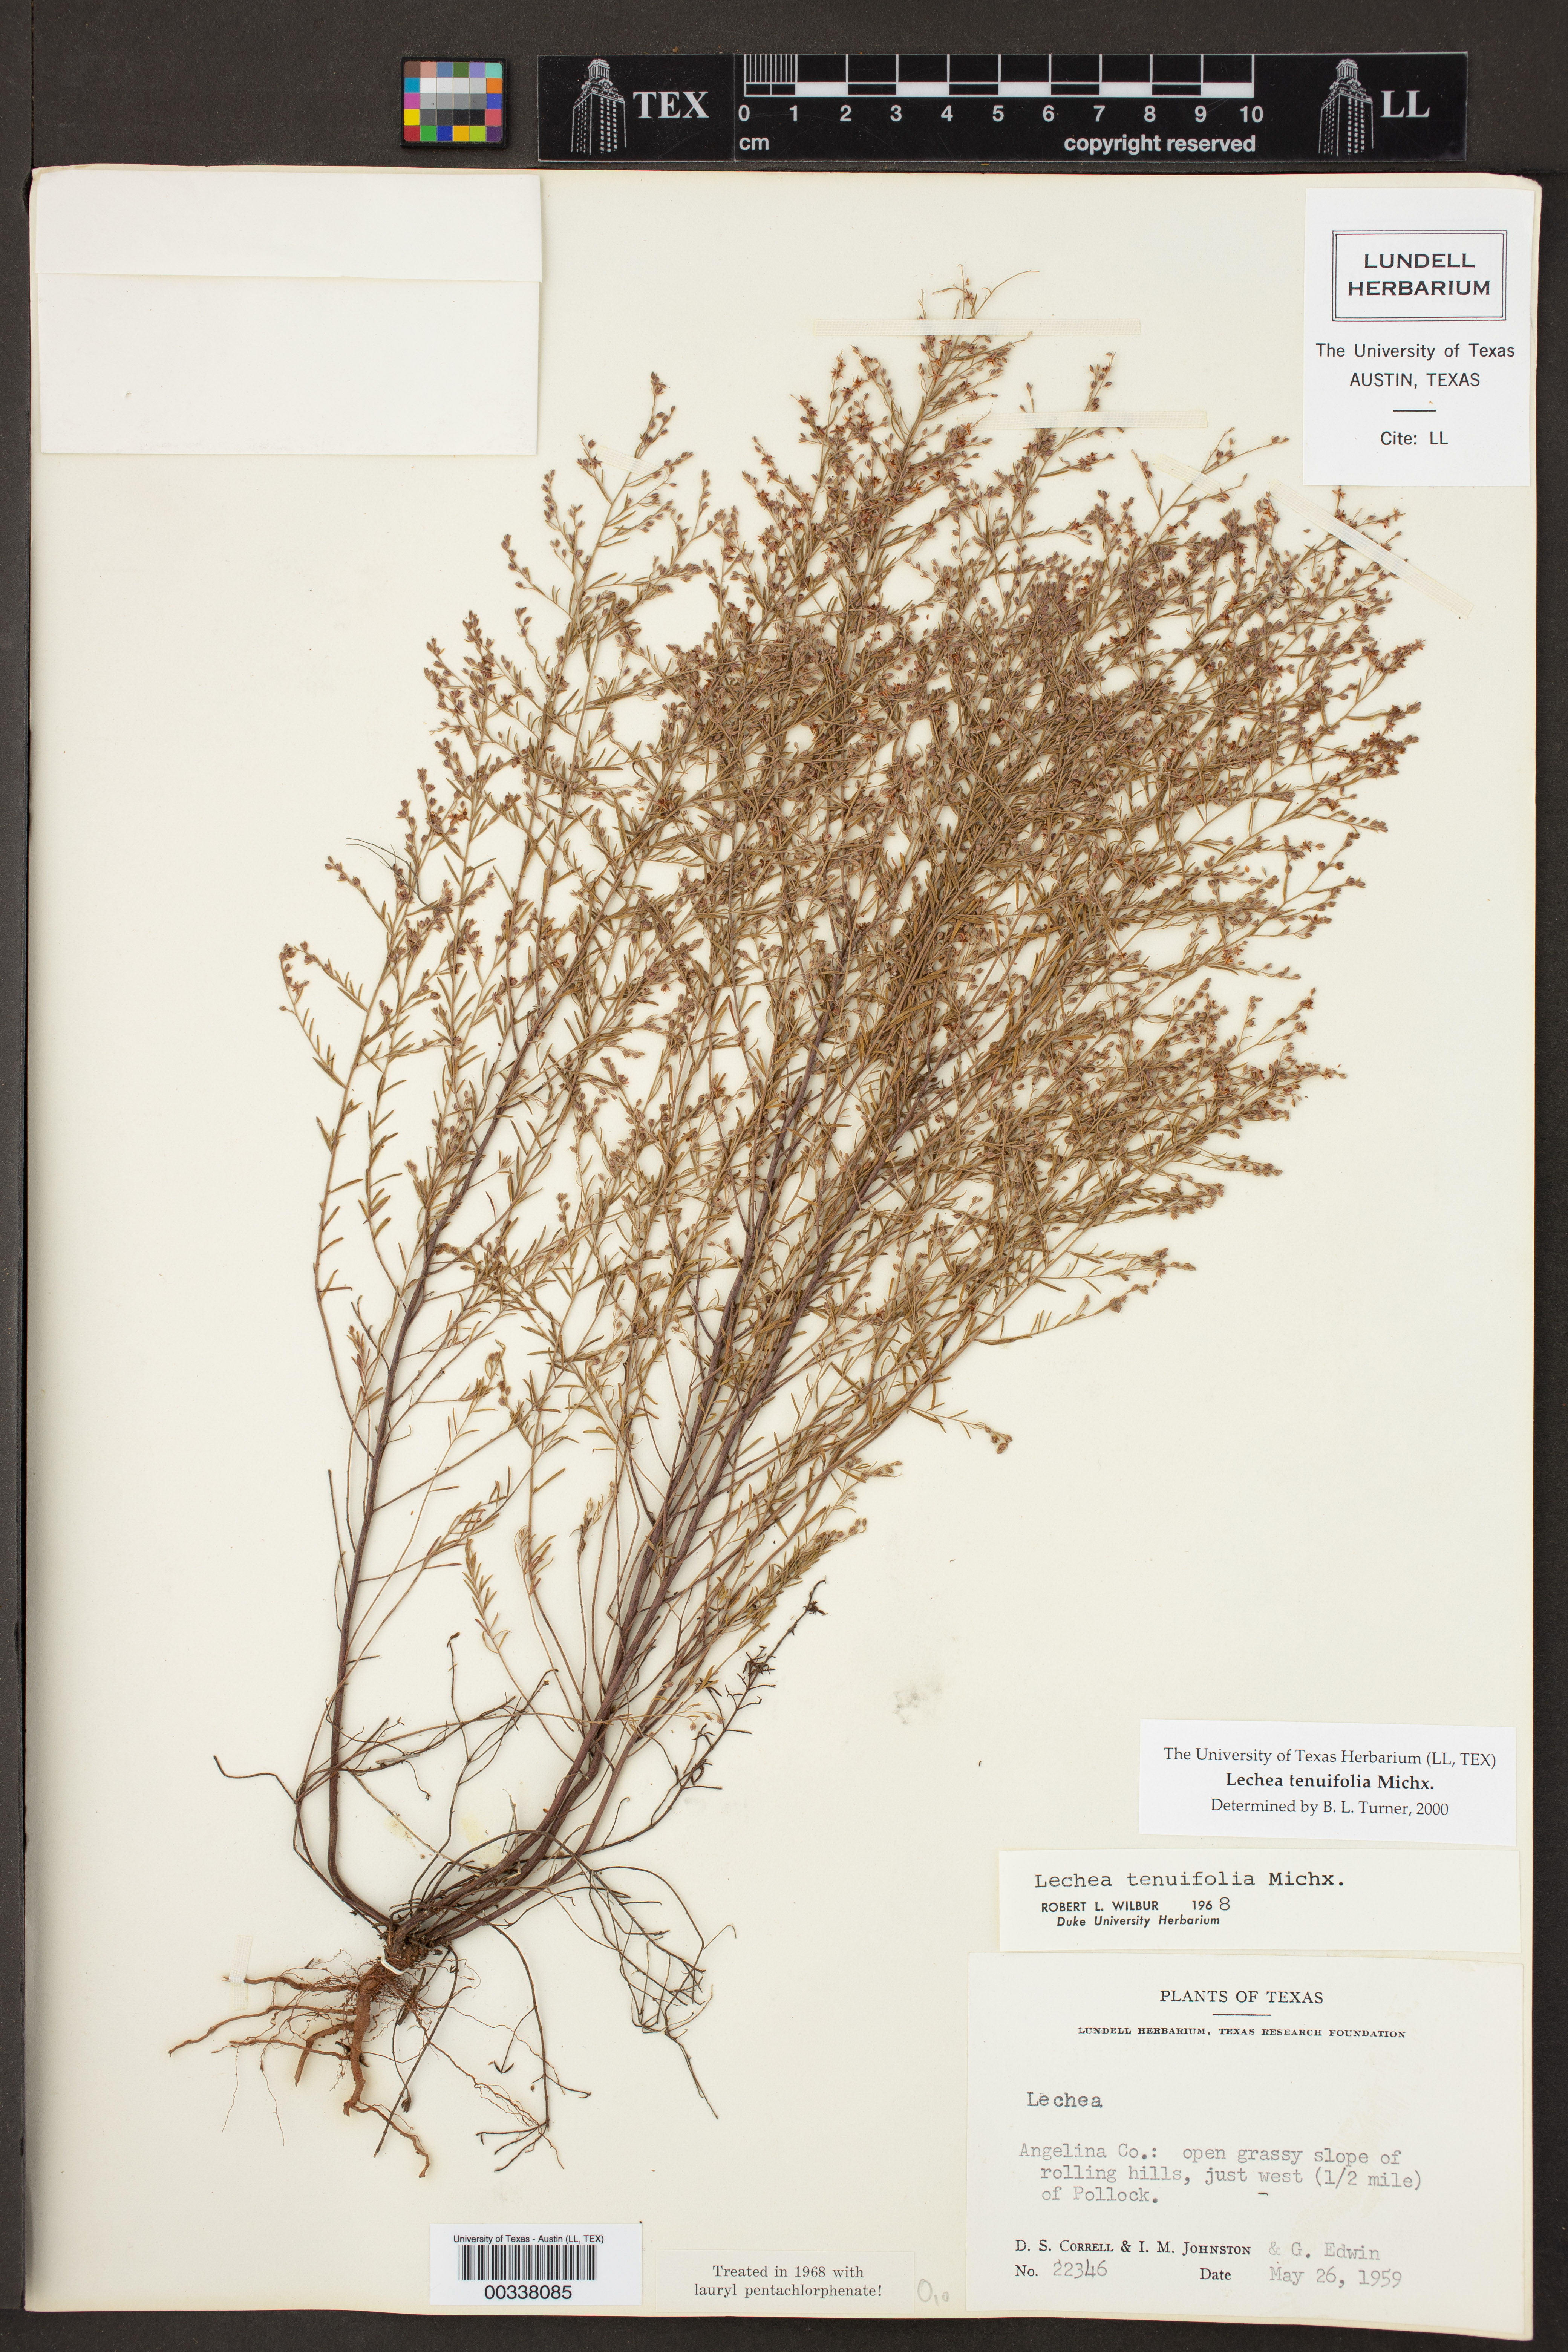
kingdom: Plantae
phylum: Tracheophyta
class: Magnoliopsida
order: Malvales
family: Cistaceae
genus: Lechea
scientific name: Lechea tenuifolia
